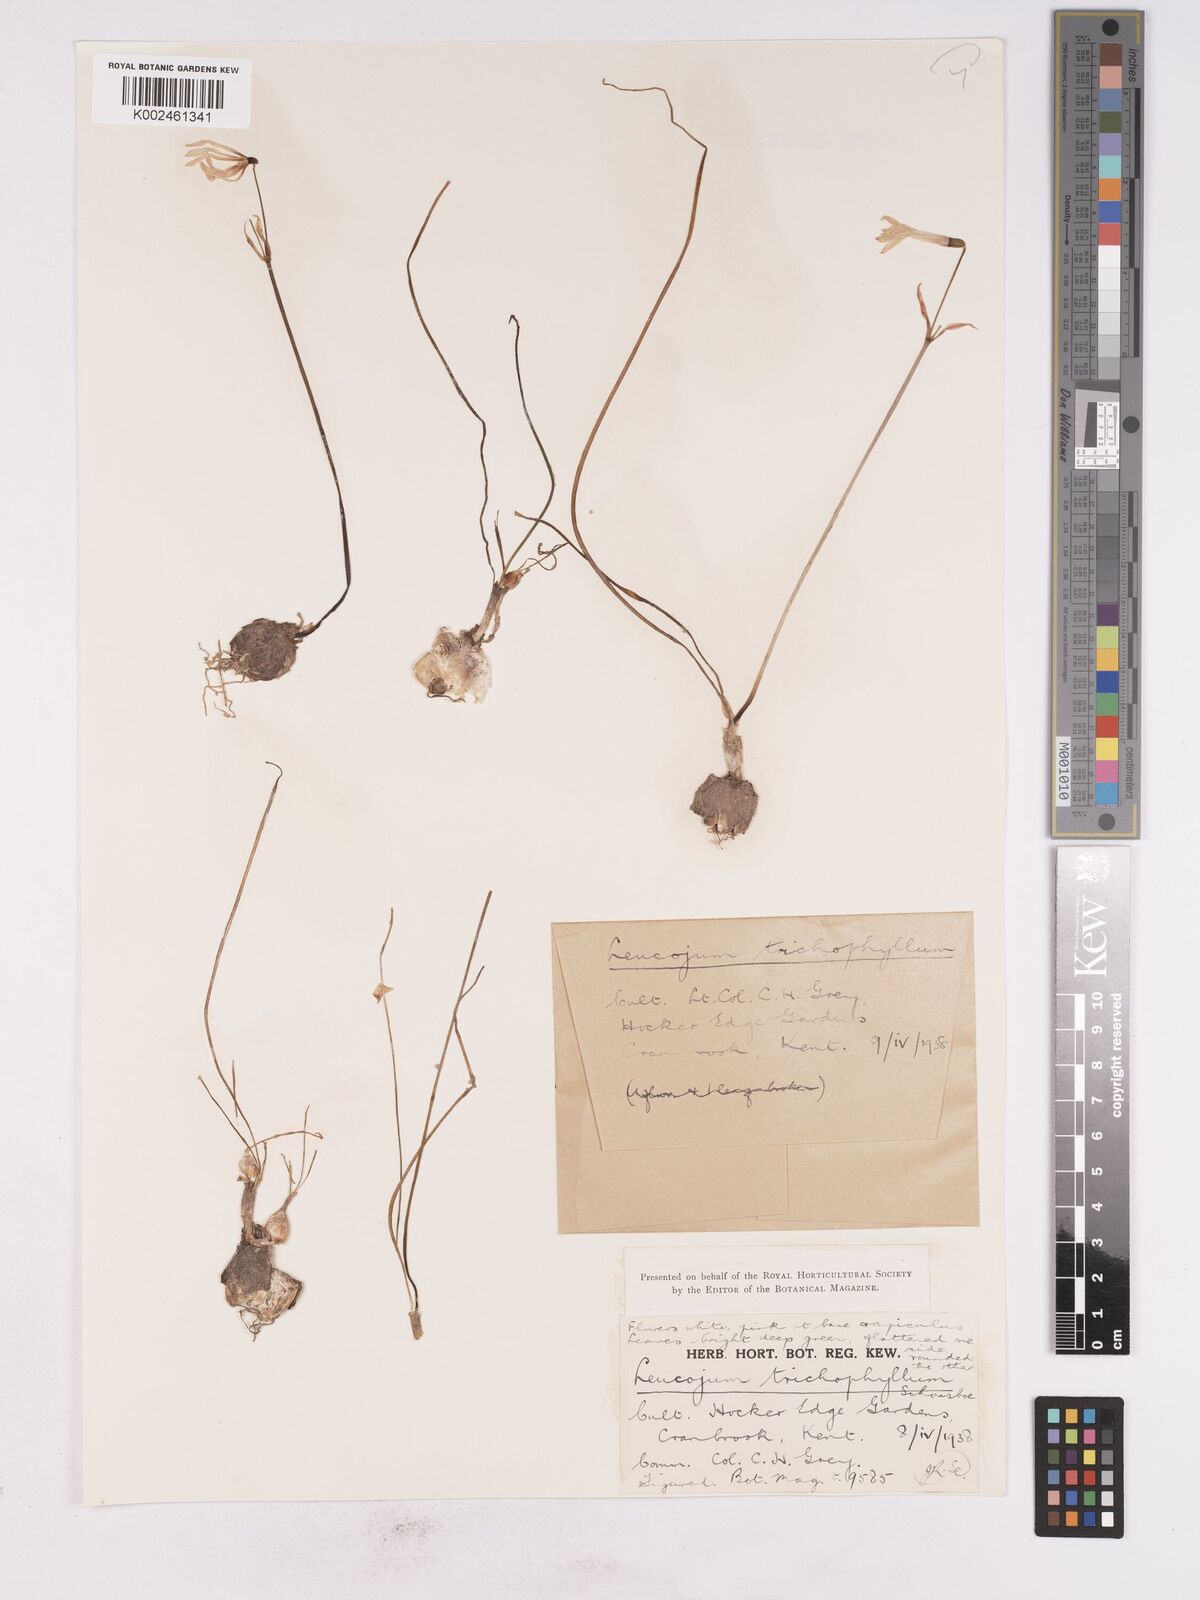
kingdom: Plantae
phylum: Tracheophyta
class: Liliopsida
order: Asparagales
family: Amaryllidaceae
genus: Acis
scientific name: Acis trichophylla
